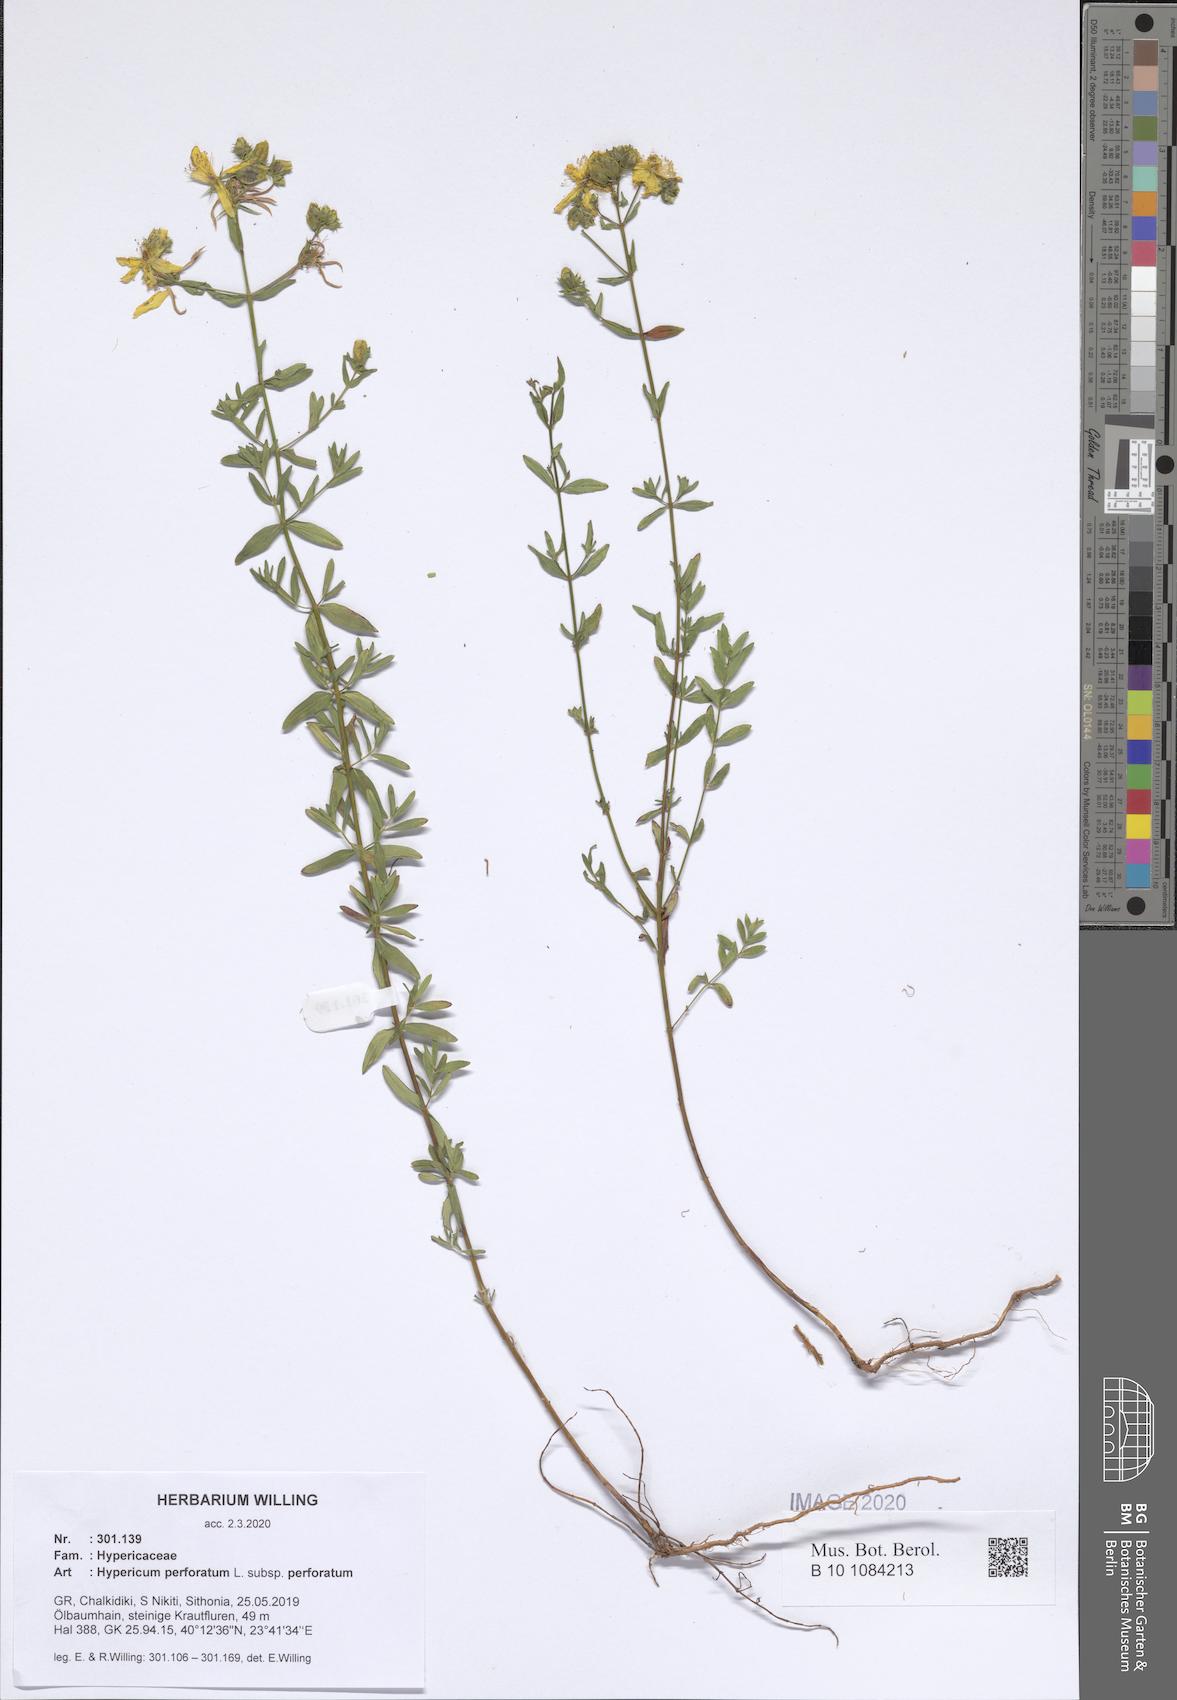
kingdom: Plantae
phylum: Tracheophyta
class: Magnoliopsida
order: Malpighiales
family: Hypericaceae
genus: Hypericum
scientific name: Hypericum perforatum
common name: Common st. johnswort
